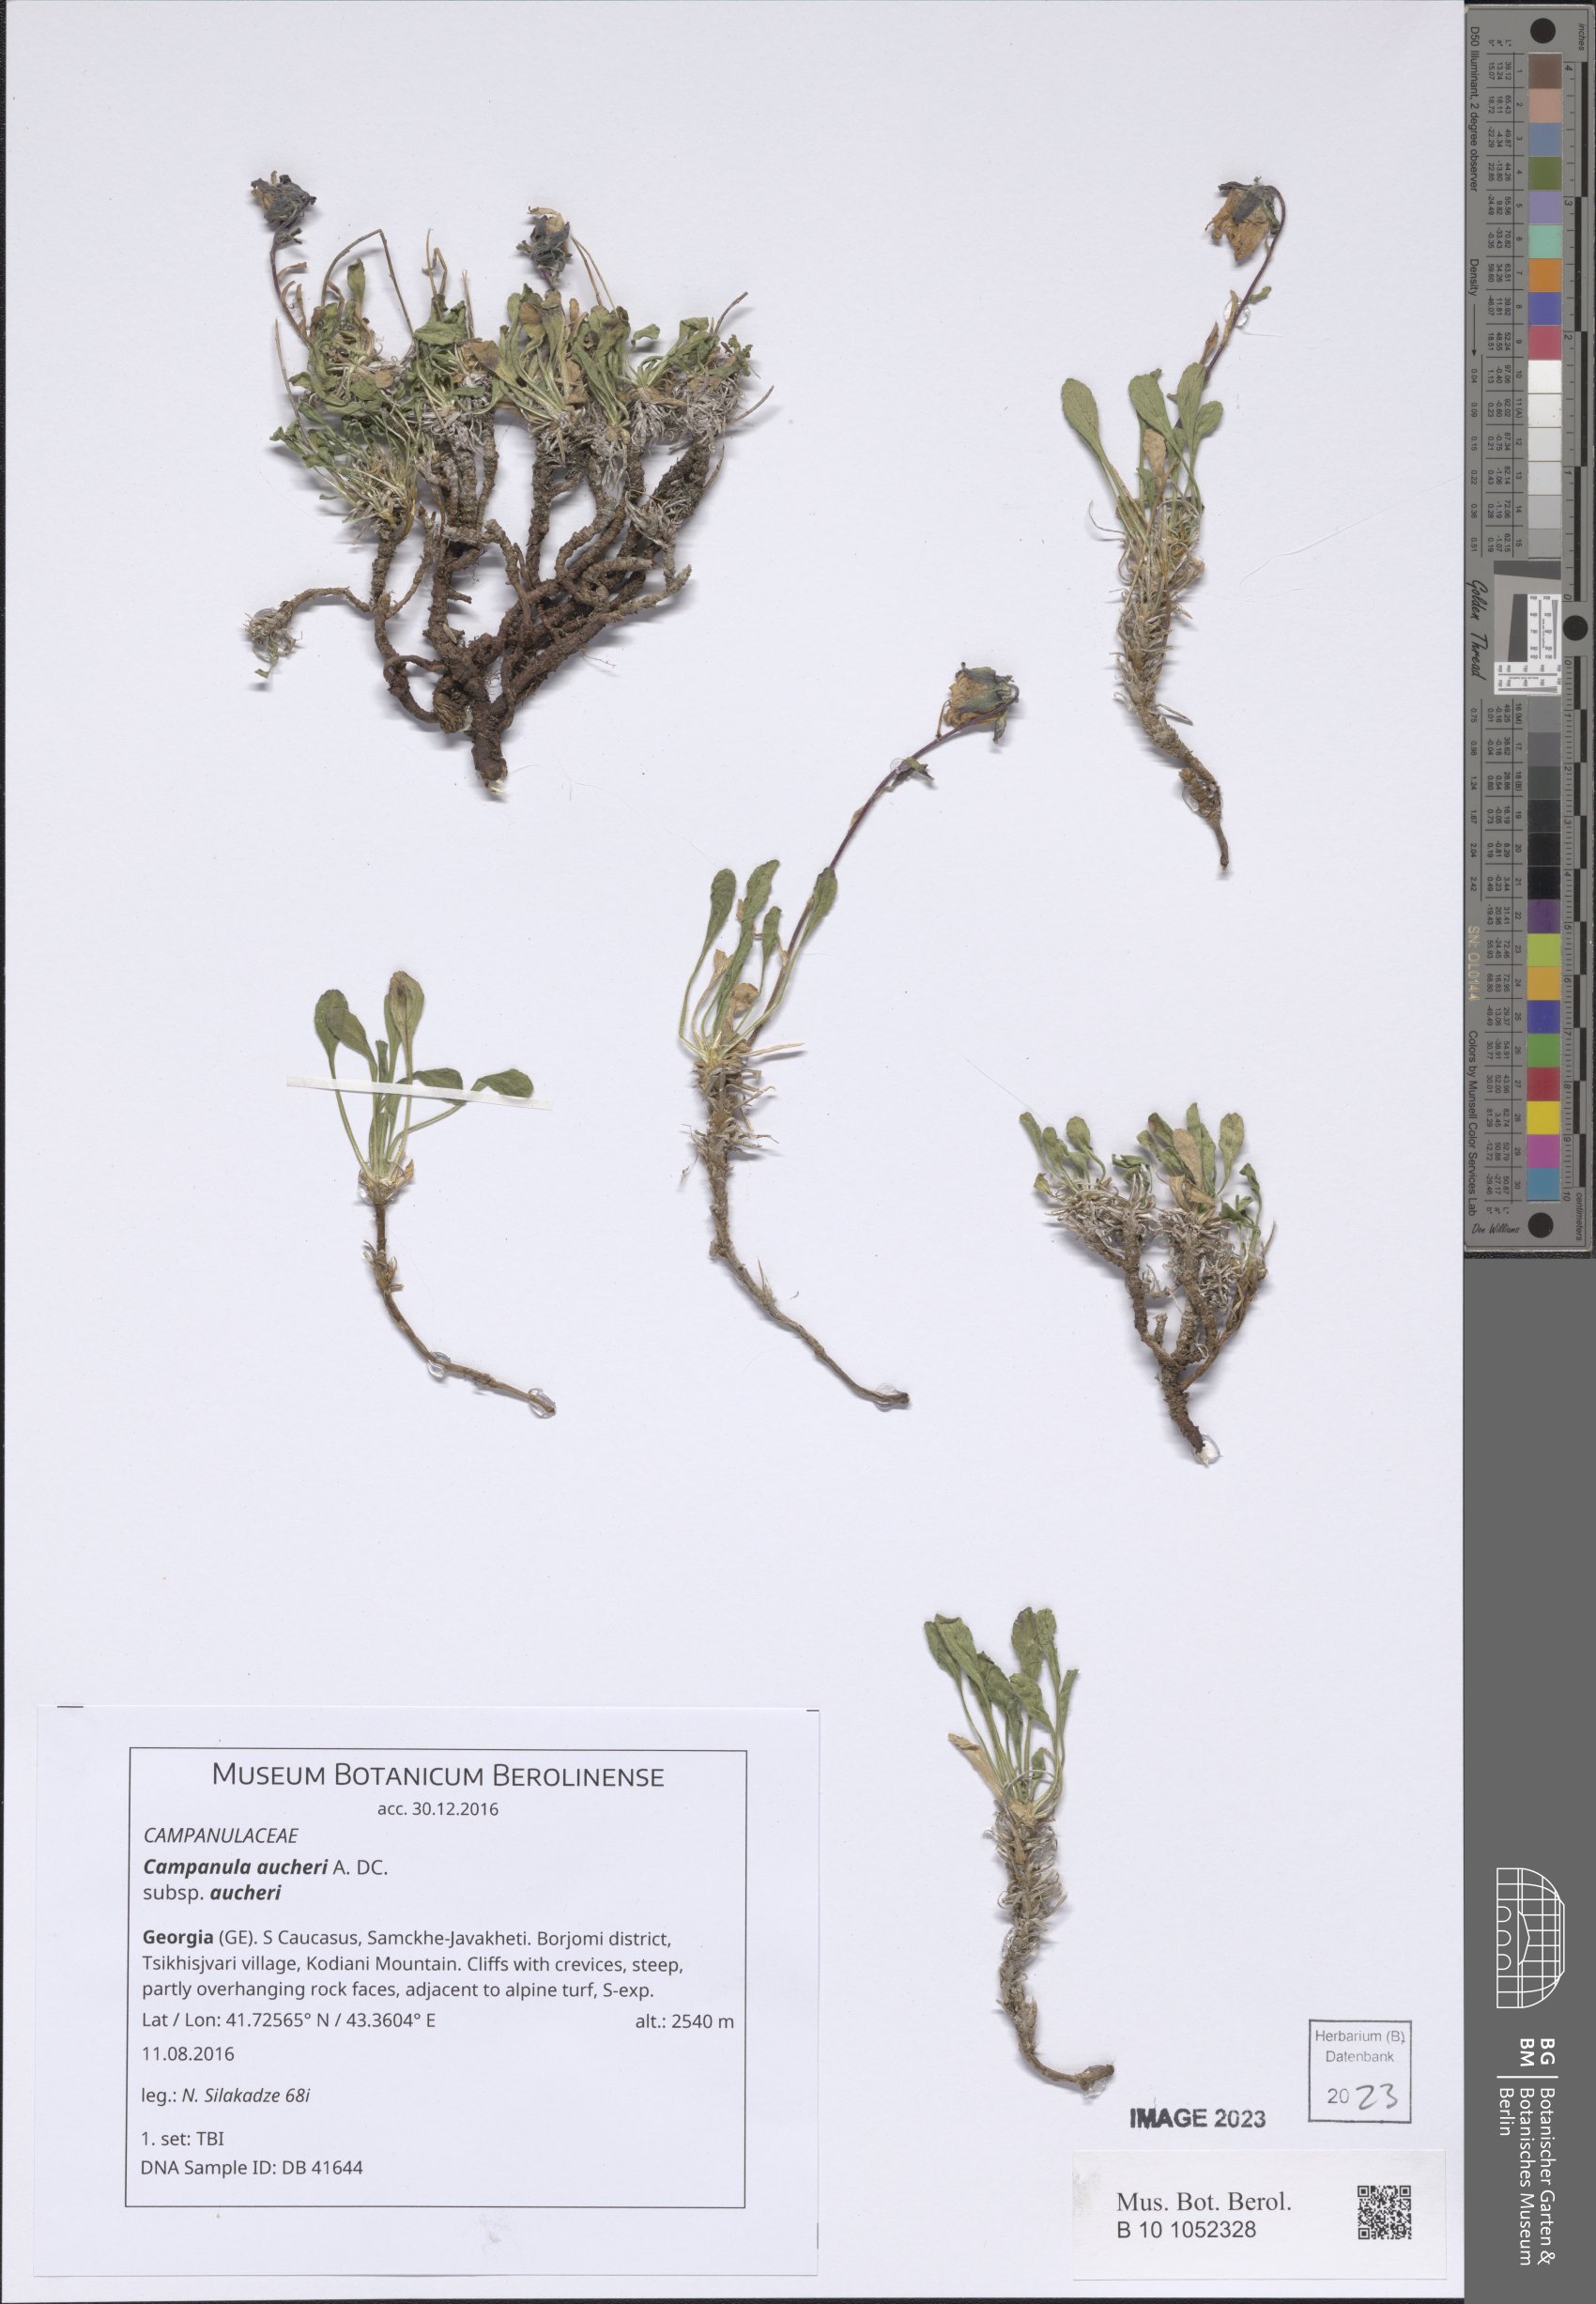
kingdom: Plantae
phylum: Tracheophyta
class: Magnoliopsida
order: Asterales
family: Campanulaceae
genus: Campanula
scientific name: Campanula saxifraga
